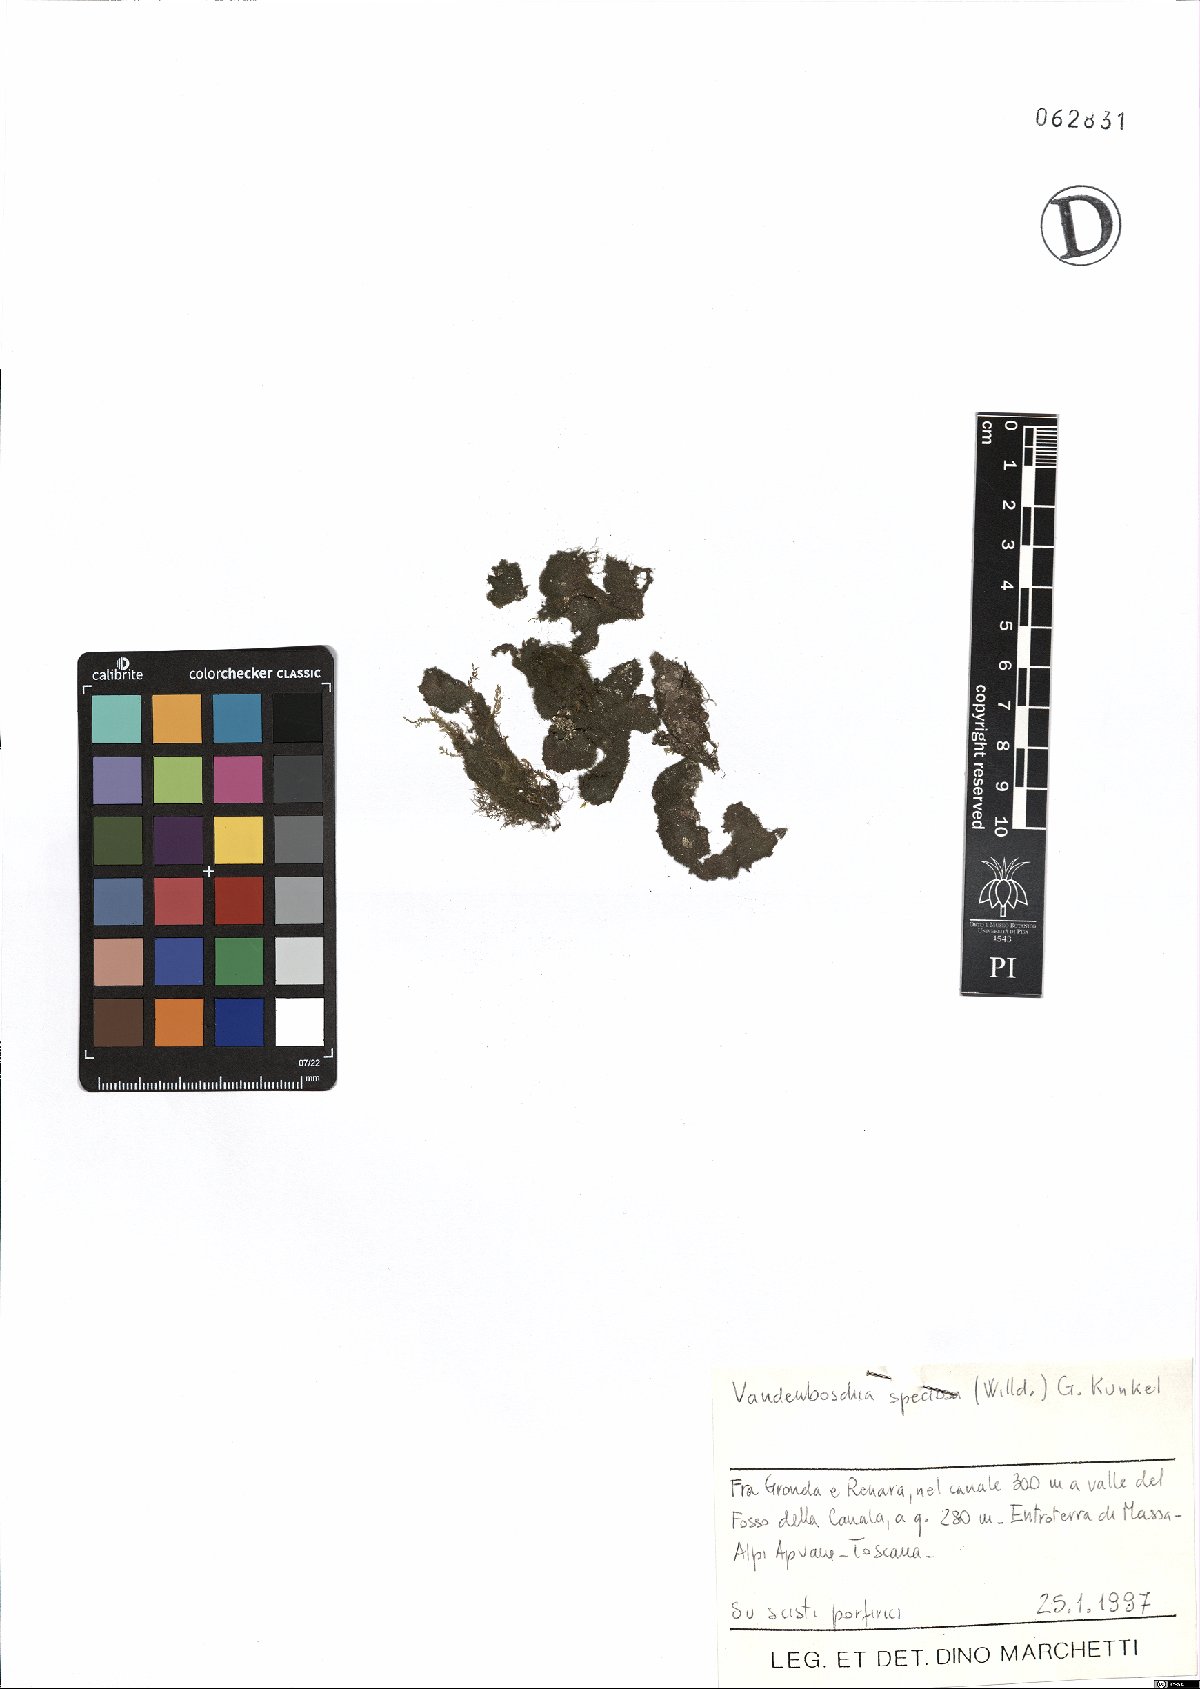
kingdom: Plantae
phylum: Tracheophyta
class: Polypodiopsida
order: Hymenophyllales
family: Hymenophyllaceae
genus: Vandenboschia
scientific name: Vandenboschia speciosa
